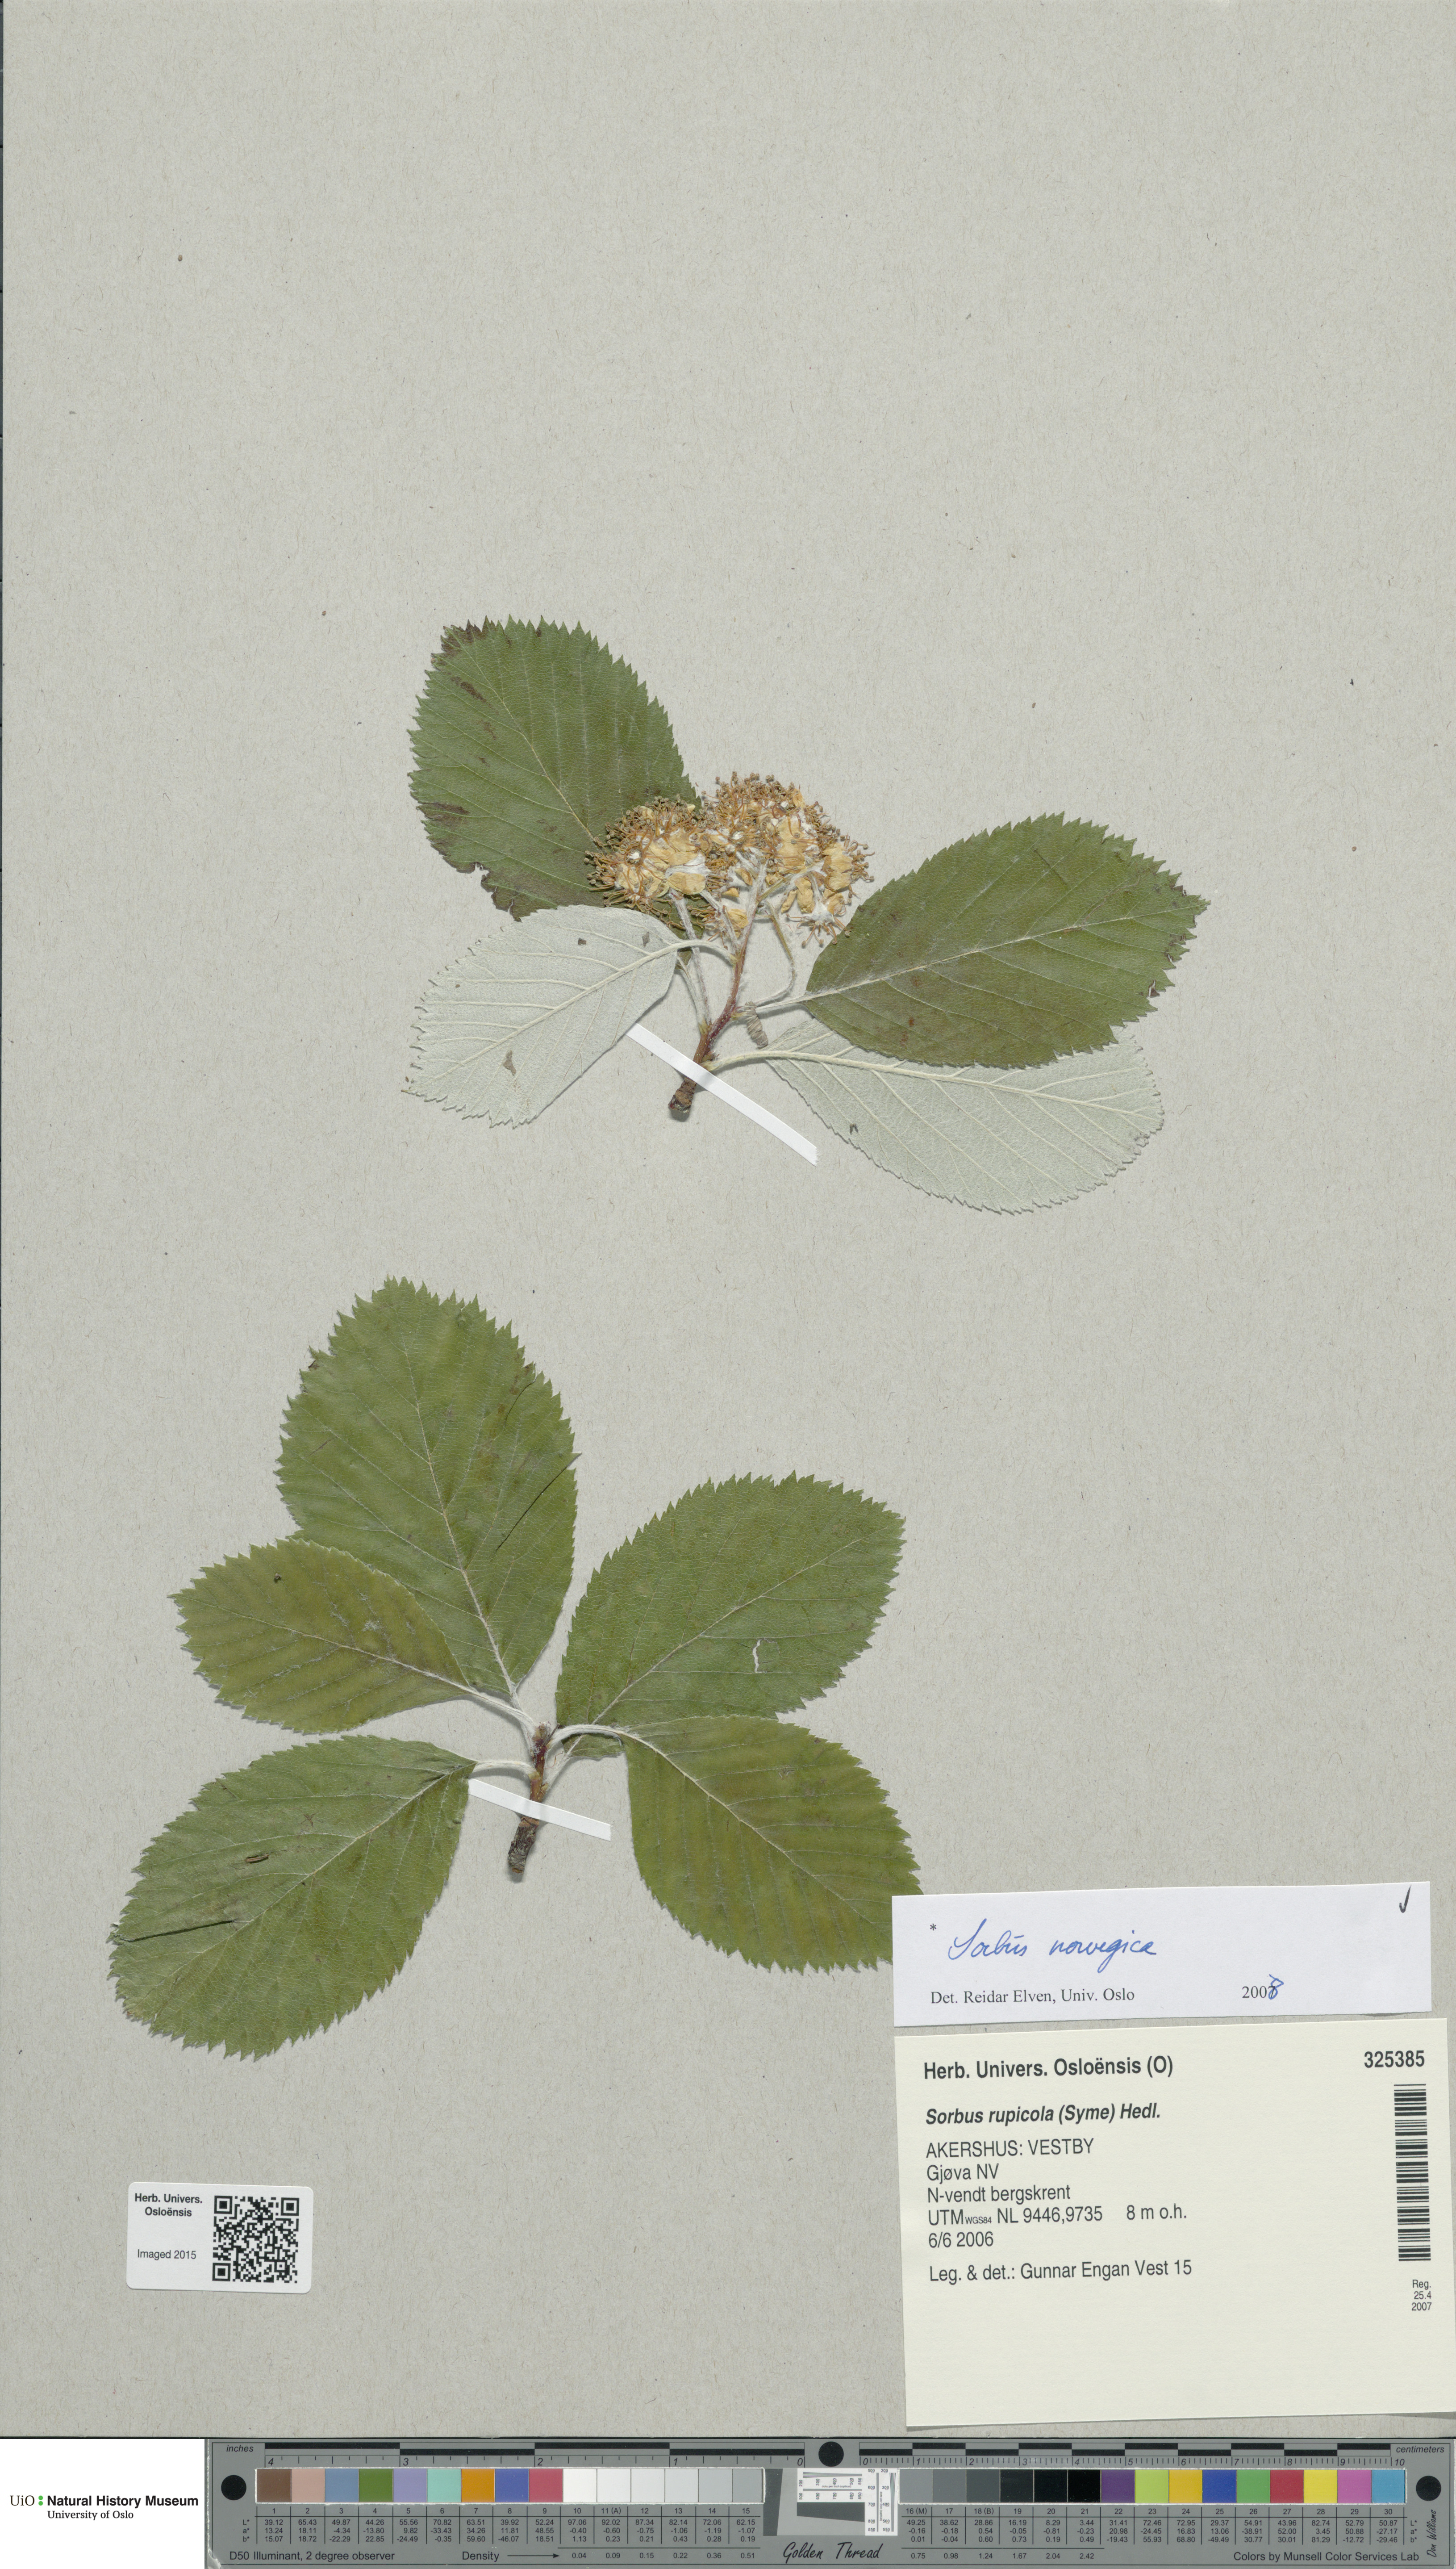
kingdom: Plantae
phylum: Tracheophyta
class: Magnoliopsida
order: Rosales
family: Rosaceae
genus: Aria
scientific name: Aria obtusifolia
